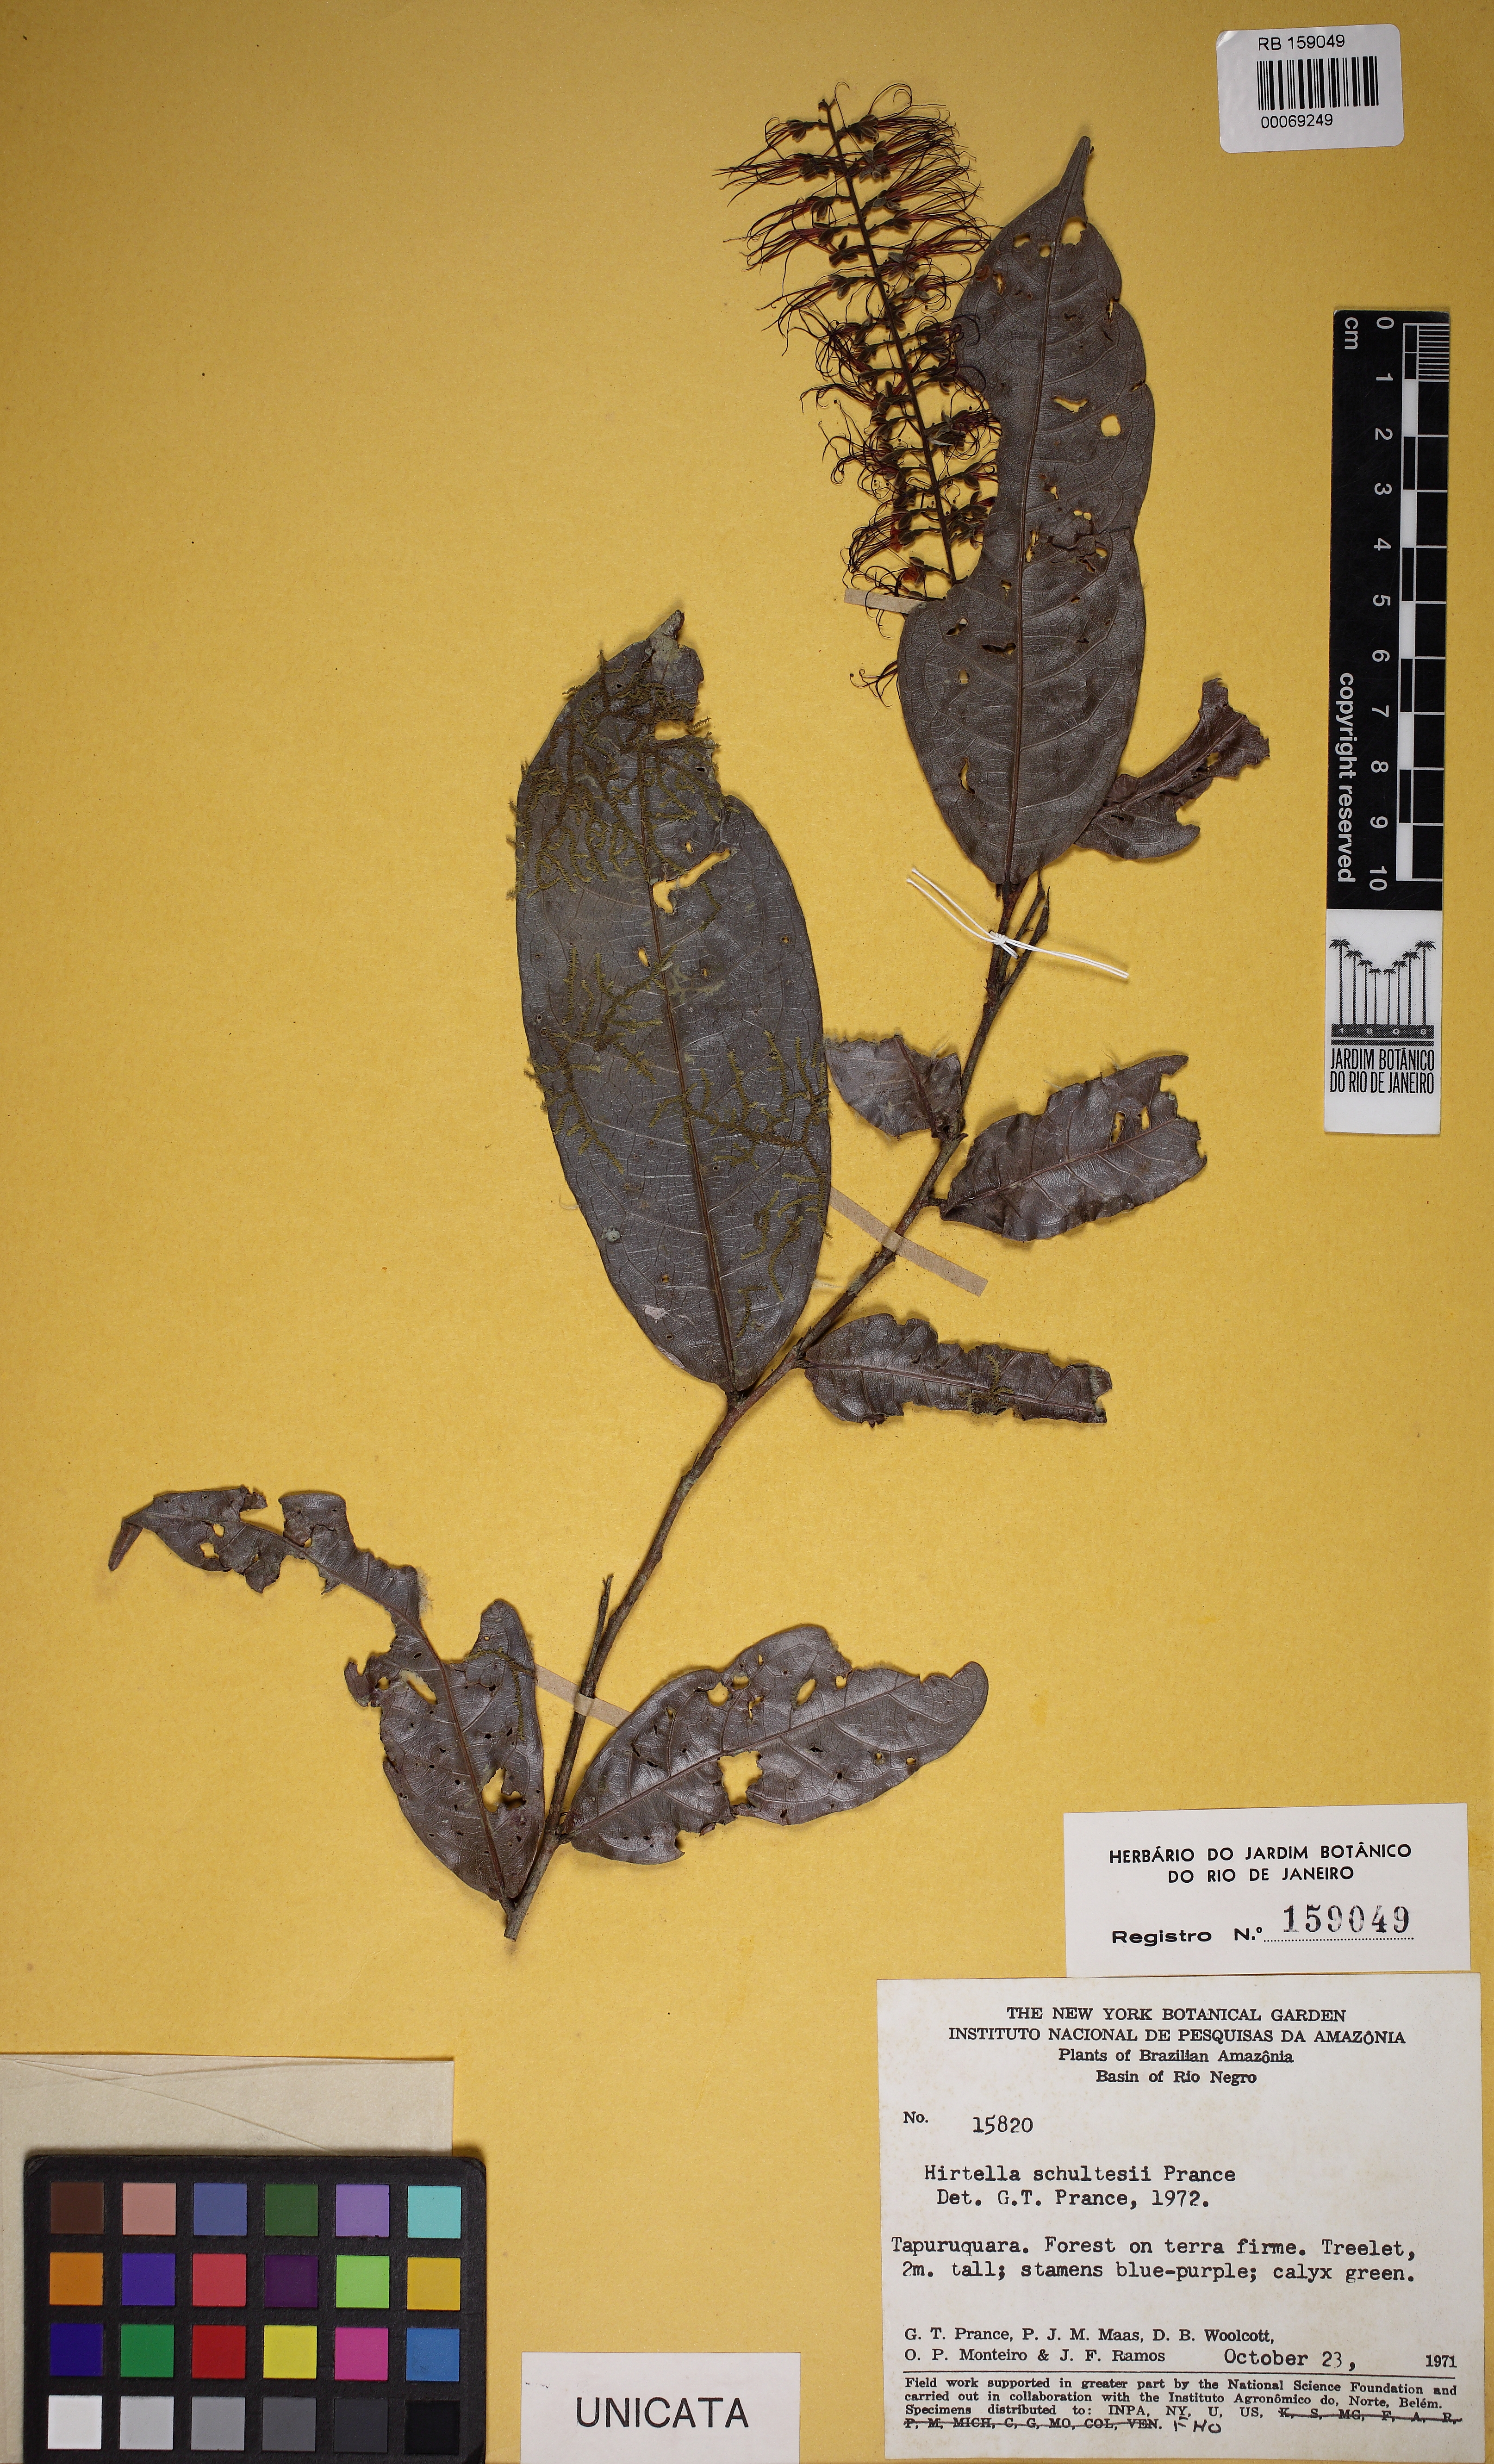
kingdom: Plantae
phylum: Tracheophyta
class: Magnoliopsida
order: Malpighiales
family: Chrysobalanaceae
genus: Hirtella
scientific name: Hirtella schultesii
